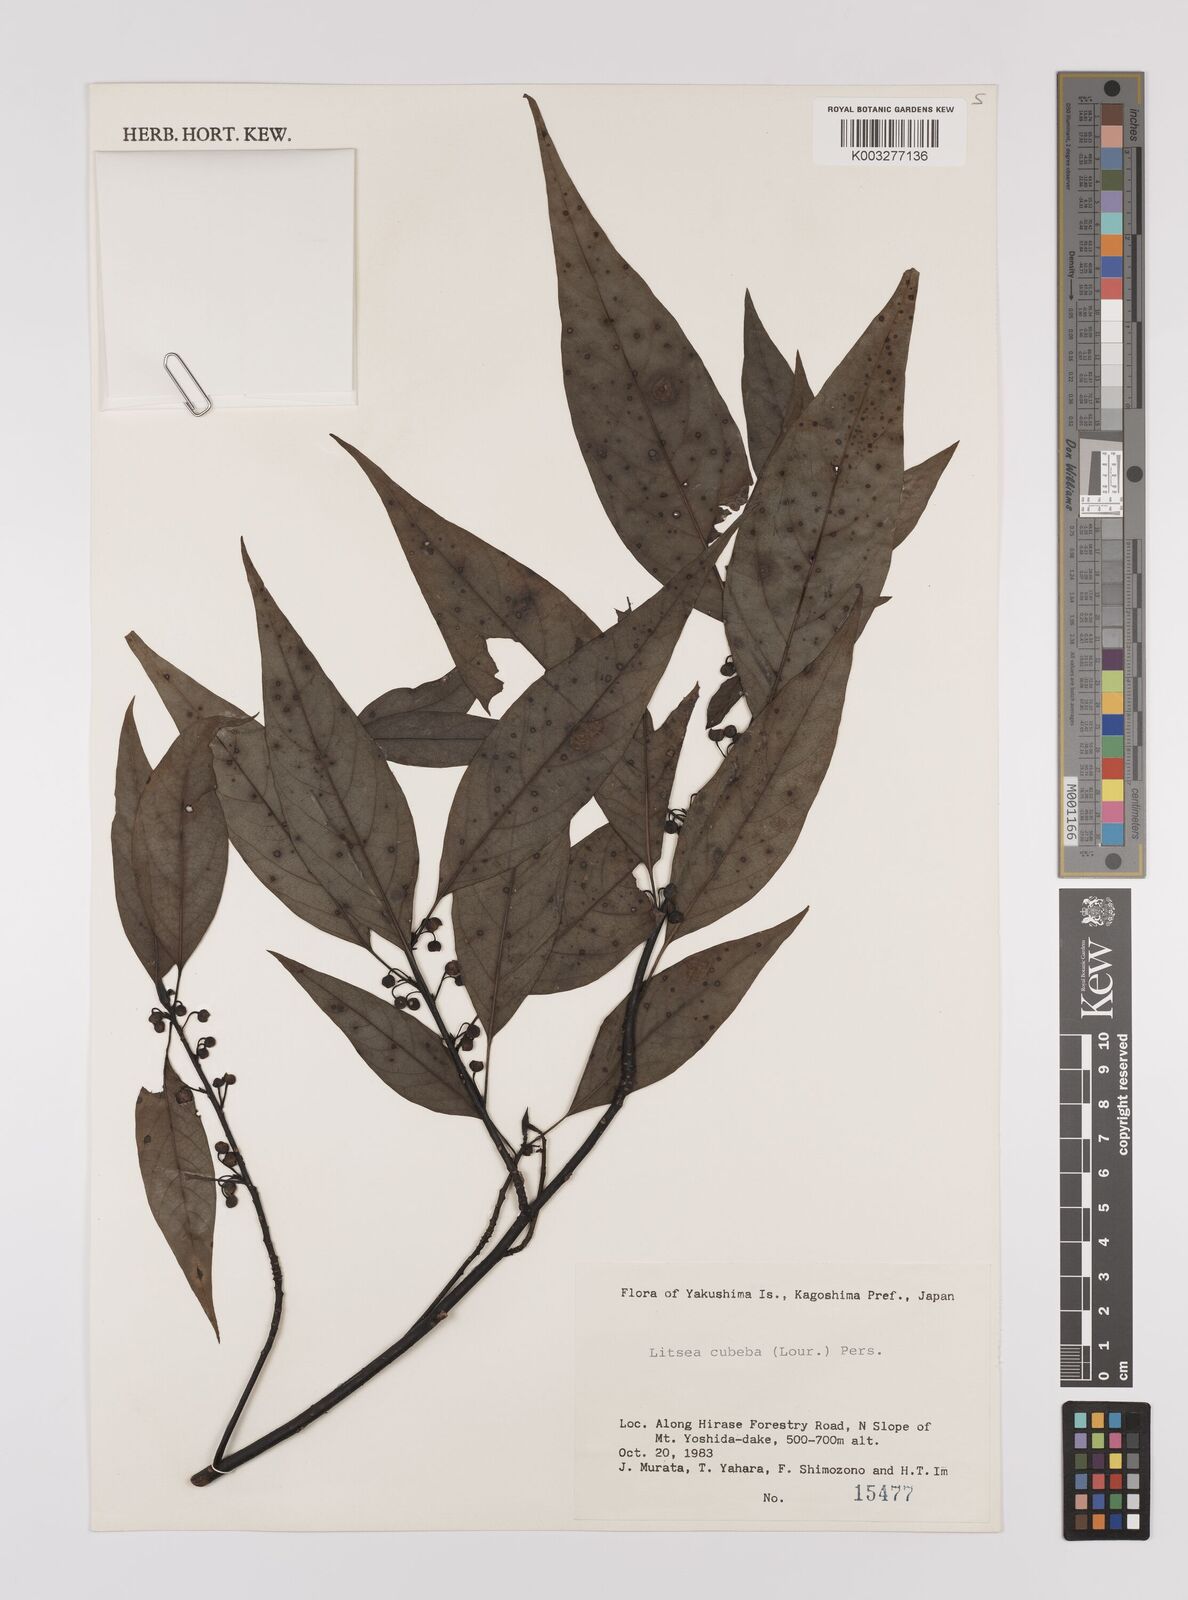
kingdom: Plantae
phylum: Tracheophyta
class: Magnoliopsida
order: Laurales
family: Lauraceae
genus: Litsea
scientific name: Litsea cubeba
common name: Mountain-pepper
